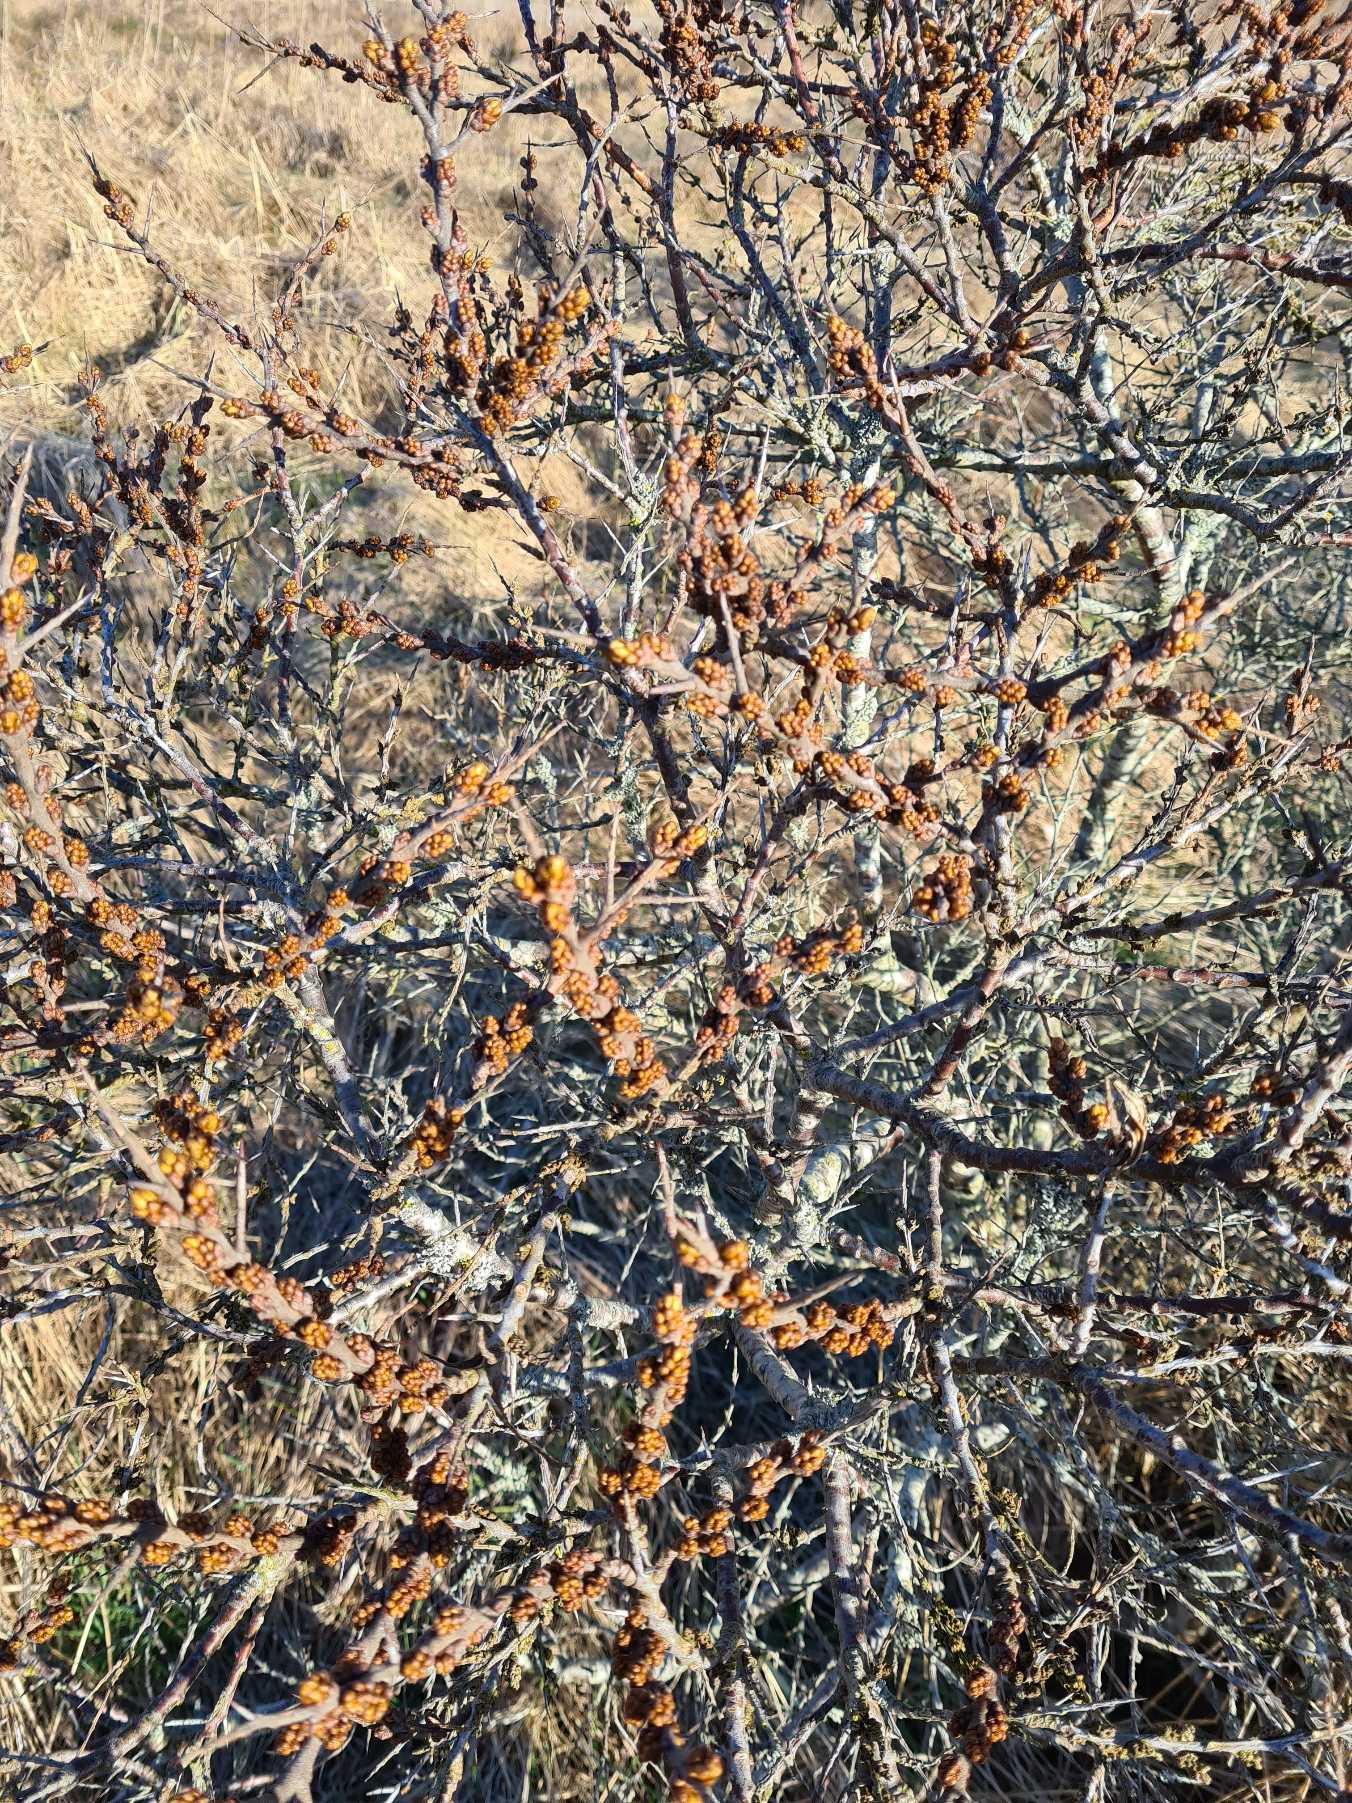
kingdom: Plantae
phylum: Tracheophyta
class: Magnoliopsida
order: Rosales
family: Elaeagnaceae
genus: Hippophae
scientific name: Hippophae rhamnoides
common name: Havtorn
